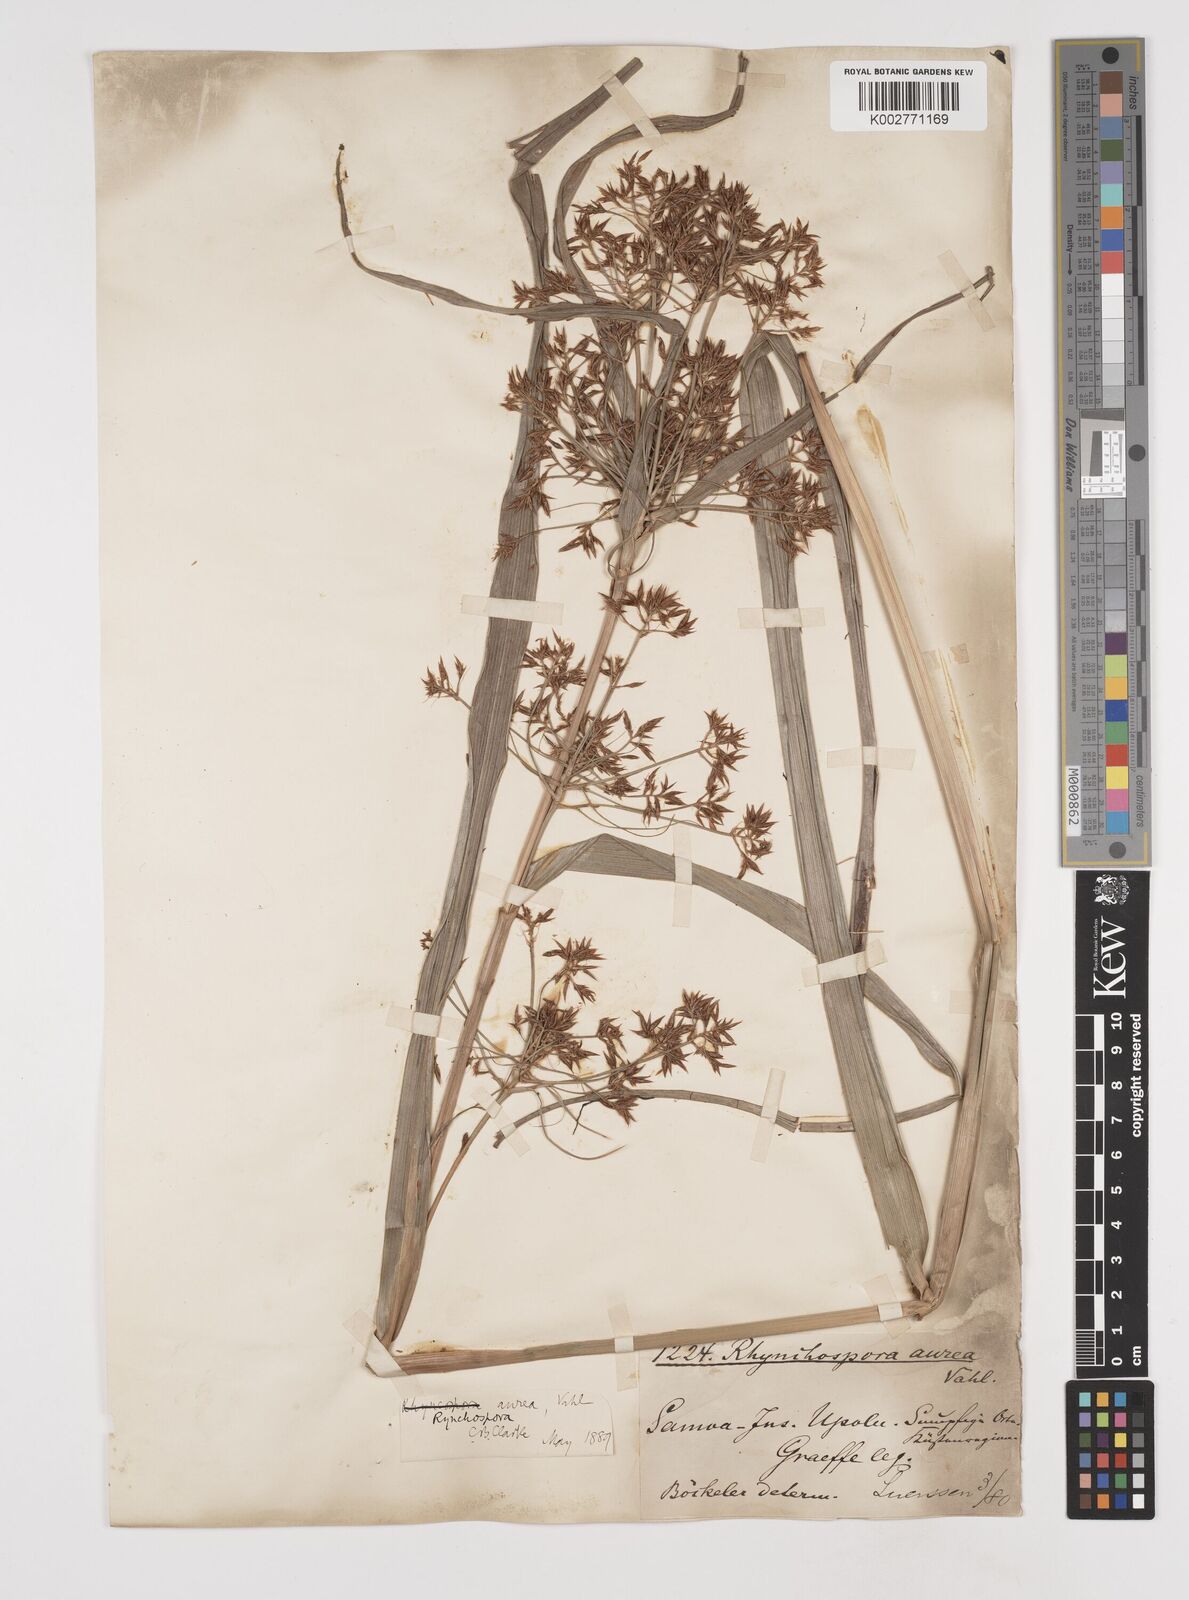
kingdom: Plantae
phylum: Tracheophyta
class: Liliopsida
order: Poales
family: Cyperaceae
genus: Rhynchospora
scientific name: Rhynchospora corymbosa
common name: Golden beak sedge
